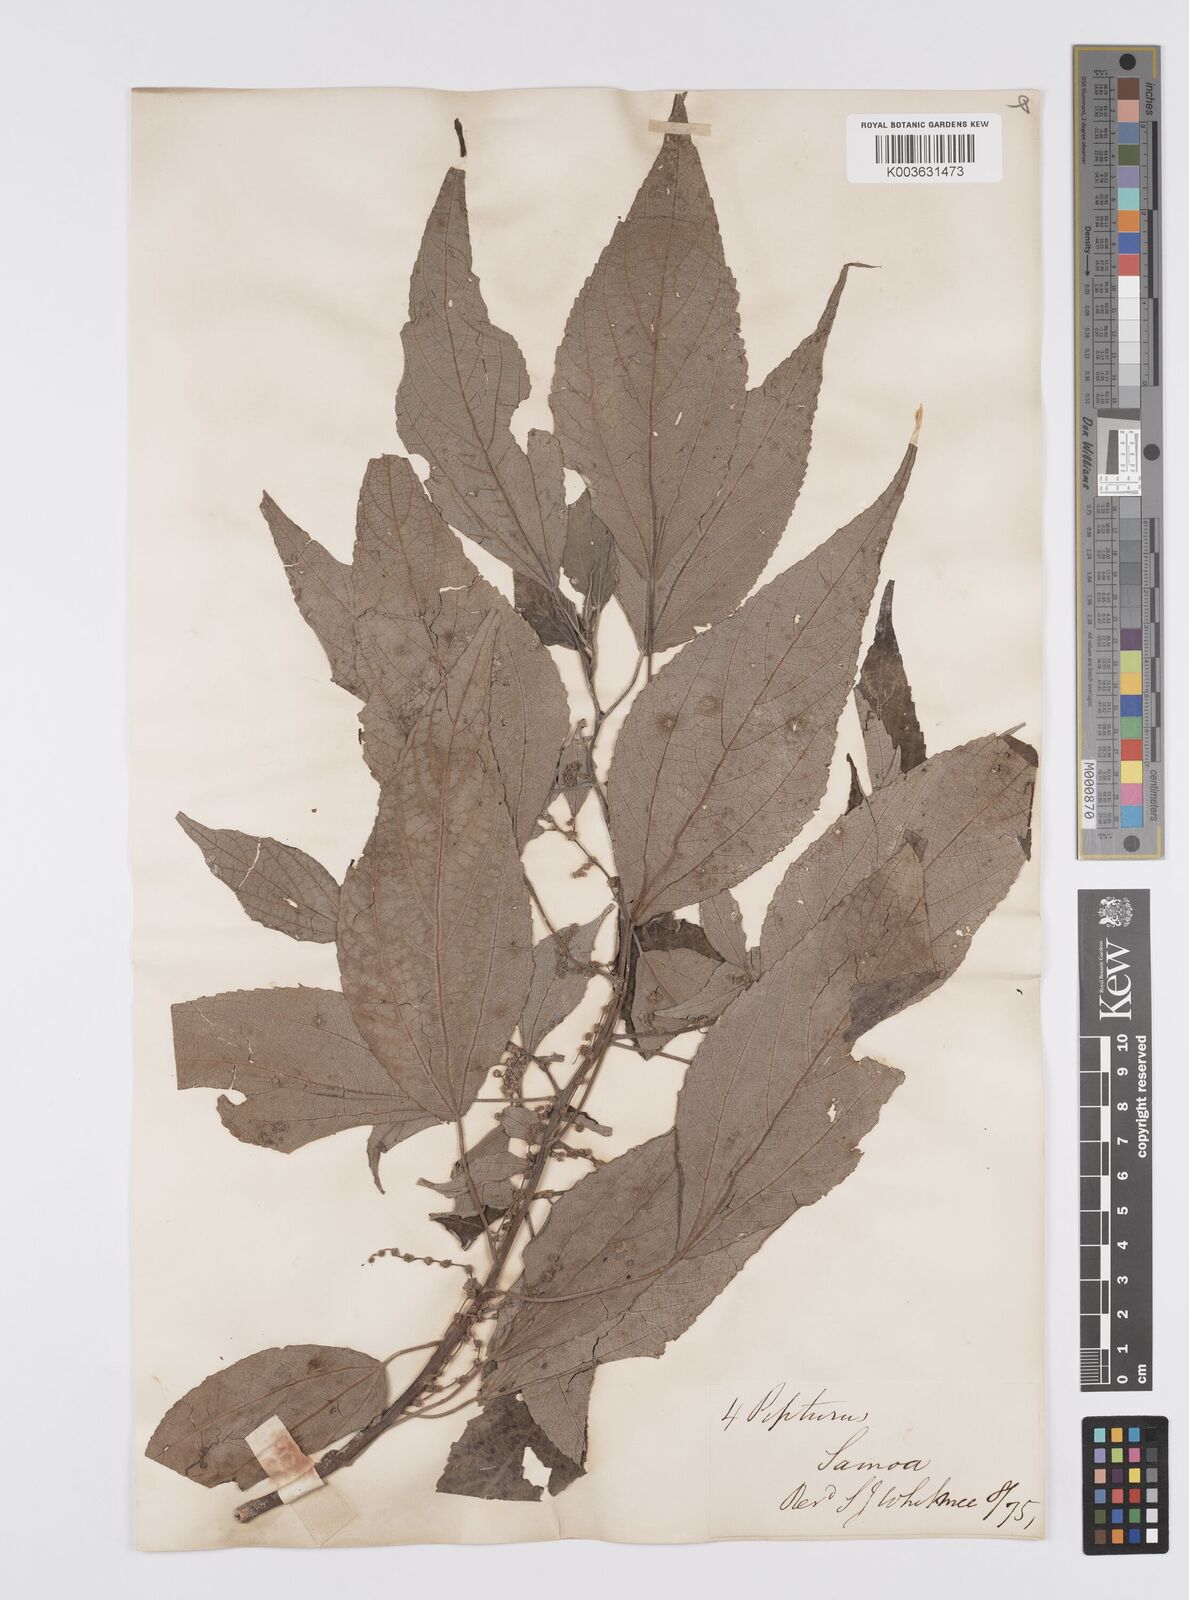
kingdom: Plantae
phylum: Tracheophyta
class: Magnoliopsida
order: Rosales
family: Urticaceae
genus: Pipturus
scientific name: Pipturus argenteus
